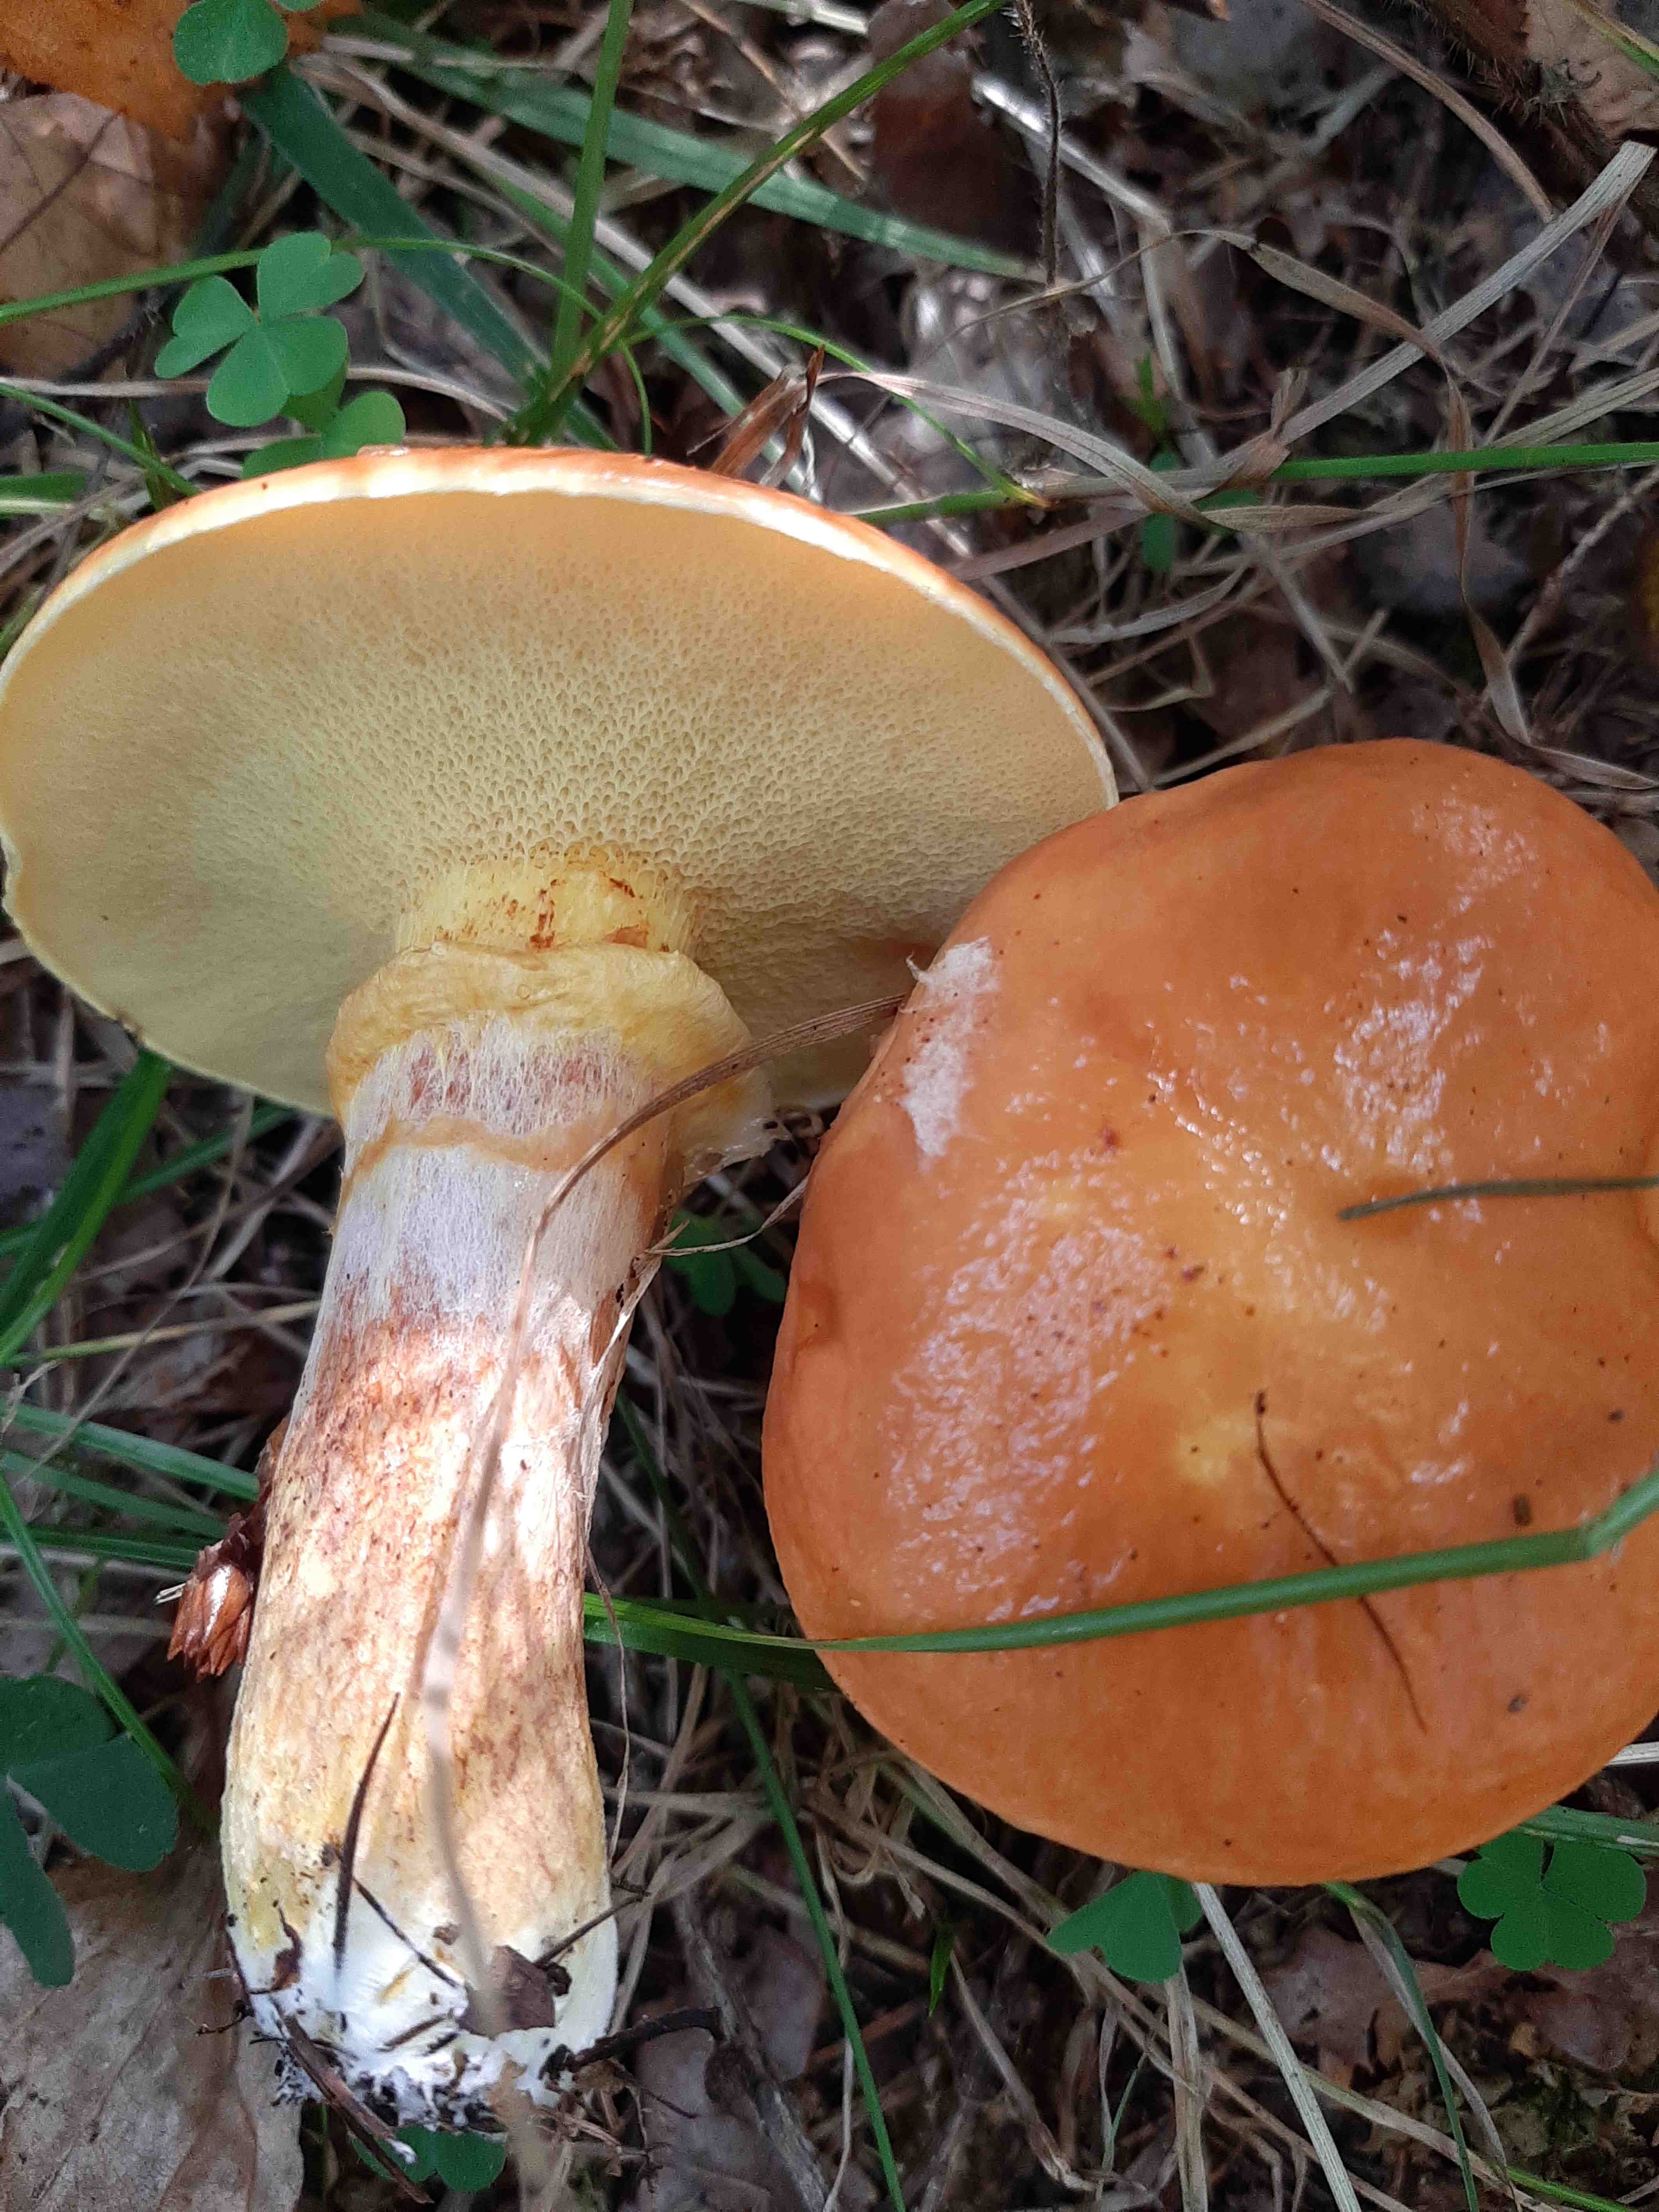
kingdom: Fungi
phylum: Basidiomycota
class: Agaricomycetes
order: Boletales
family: Suillaceae
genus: Suillus
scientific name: Suillus grevillei
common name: lærke-slimrørhat
